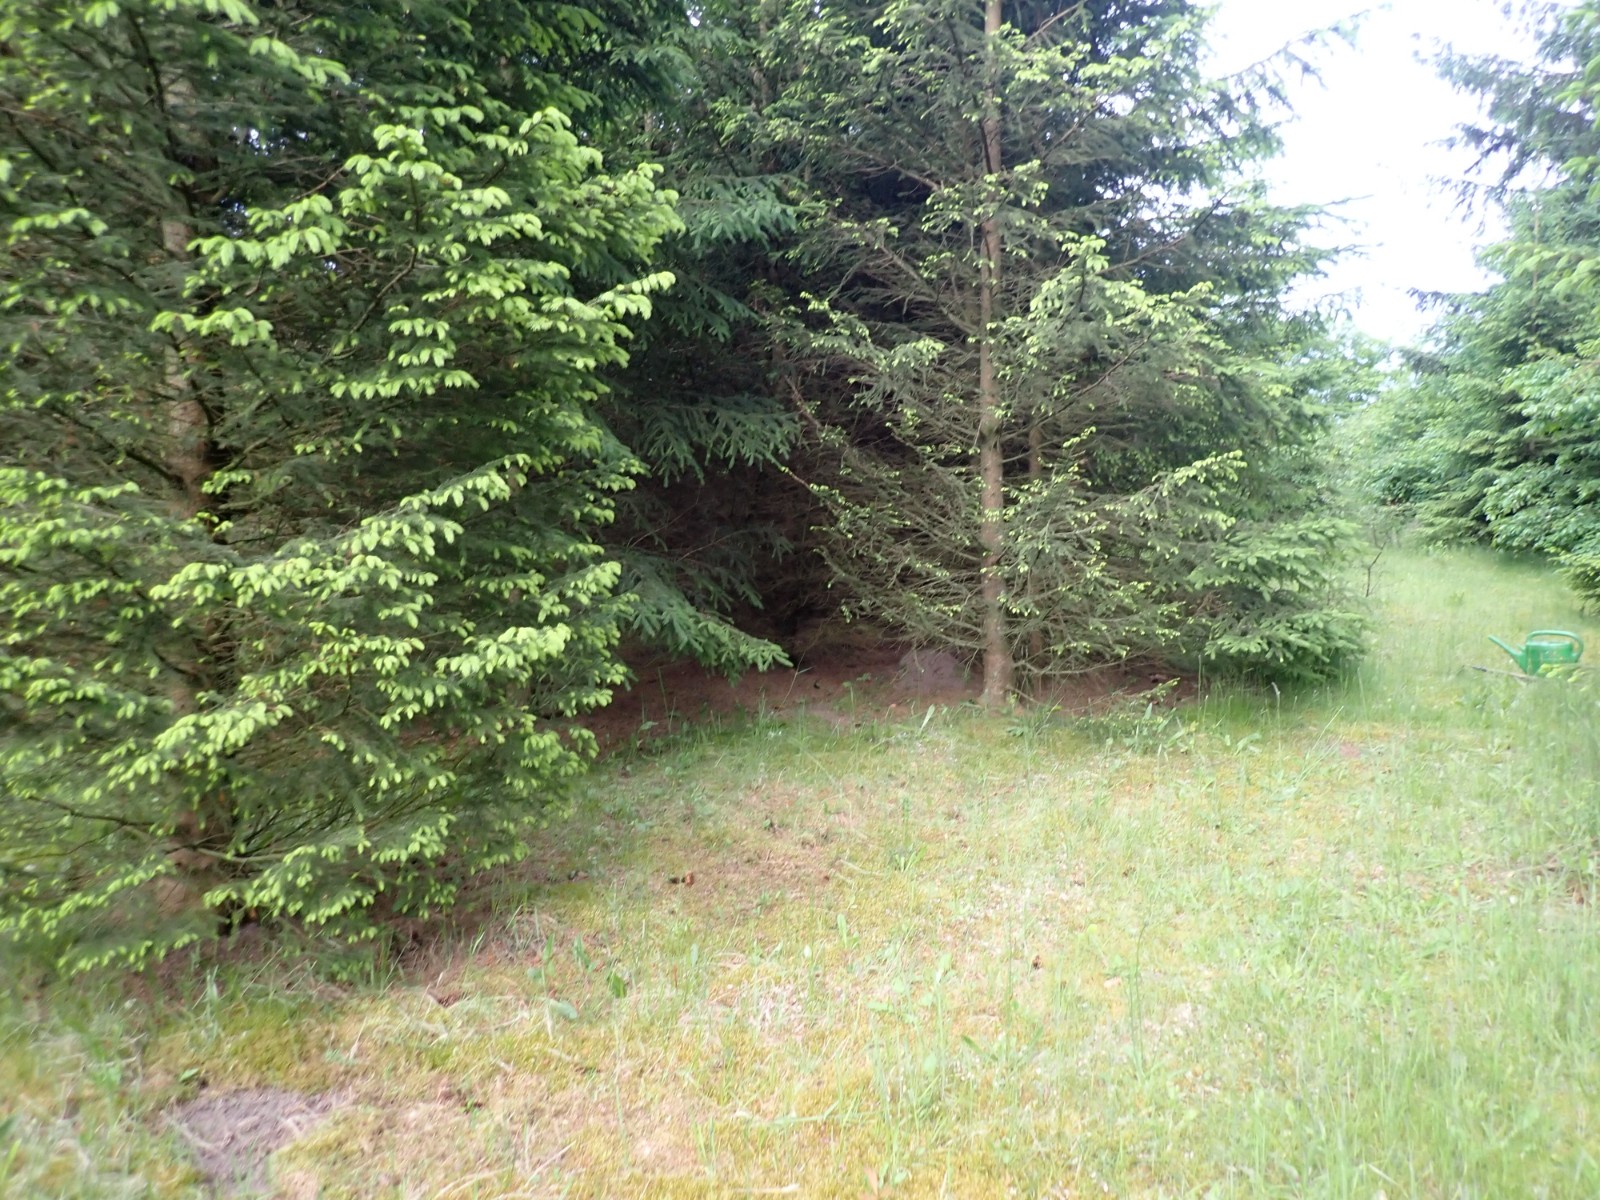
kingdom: Fungi
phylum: Basidiomycota
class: Agaricomycetes
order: Russulales
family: Russulaceae
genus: Russula
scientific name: Russula nauseosa
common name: spinkel skørhat
